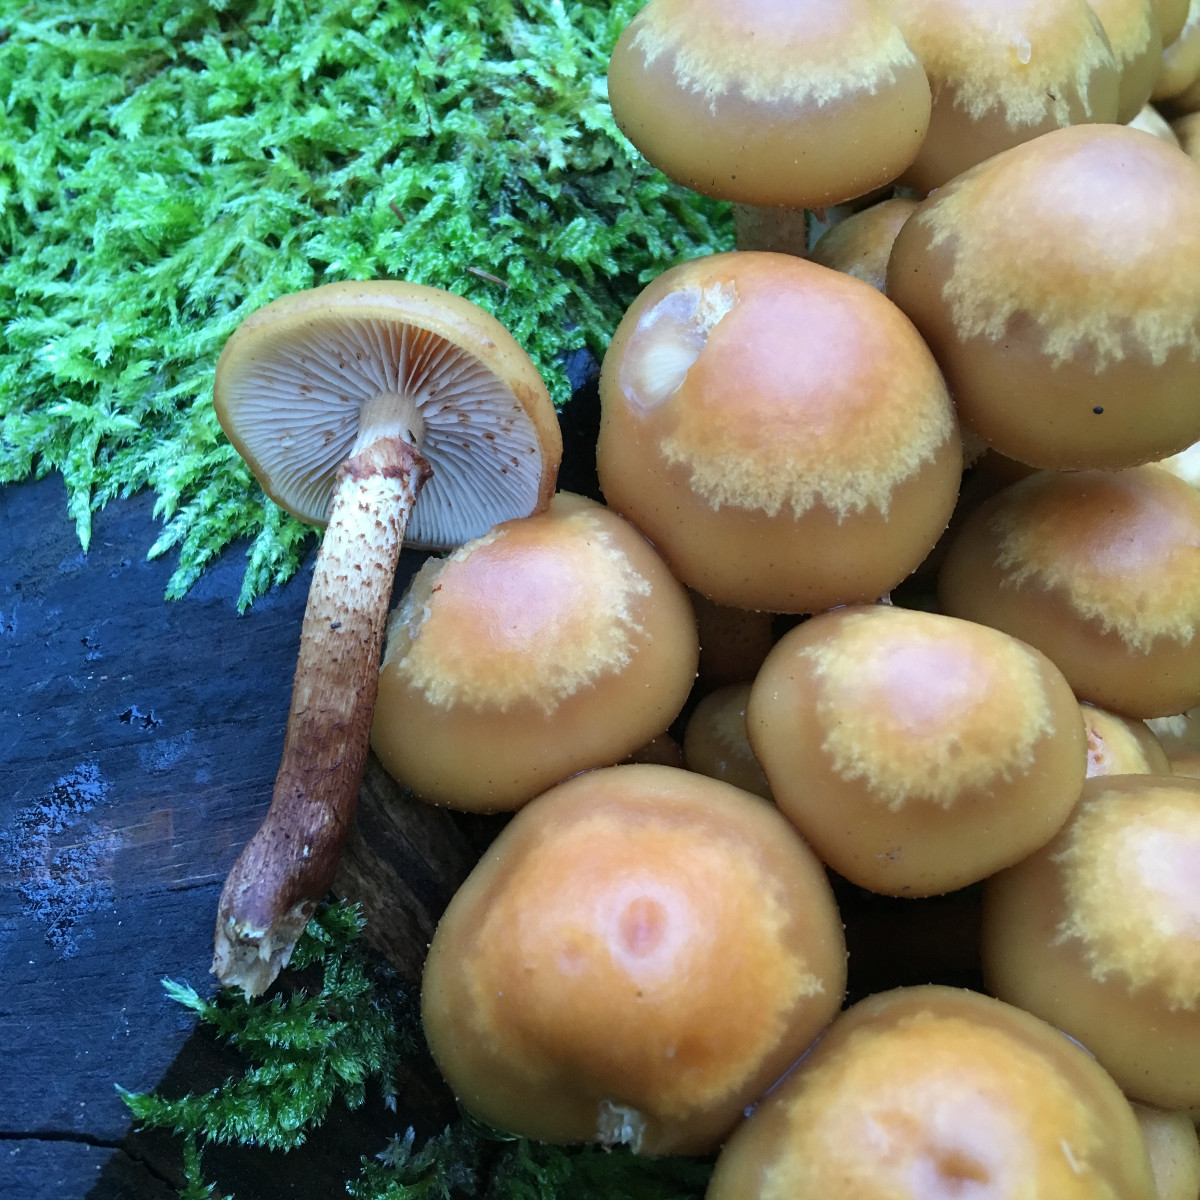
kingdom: Fungi
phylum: Basidiomycota
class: Agaricomycetes
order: Agaricales
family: Strophariaceae
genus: Kuehneromyces
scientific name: Kuehneromyces mutabilis
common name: foranderlig skælhat
